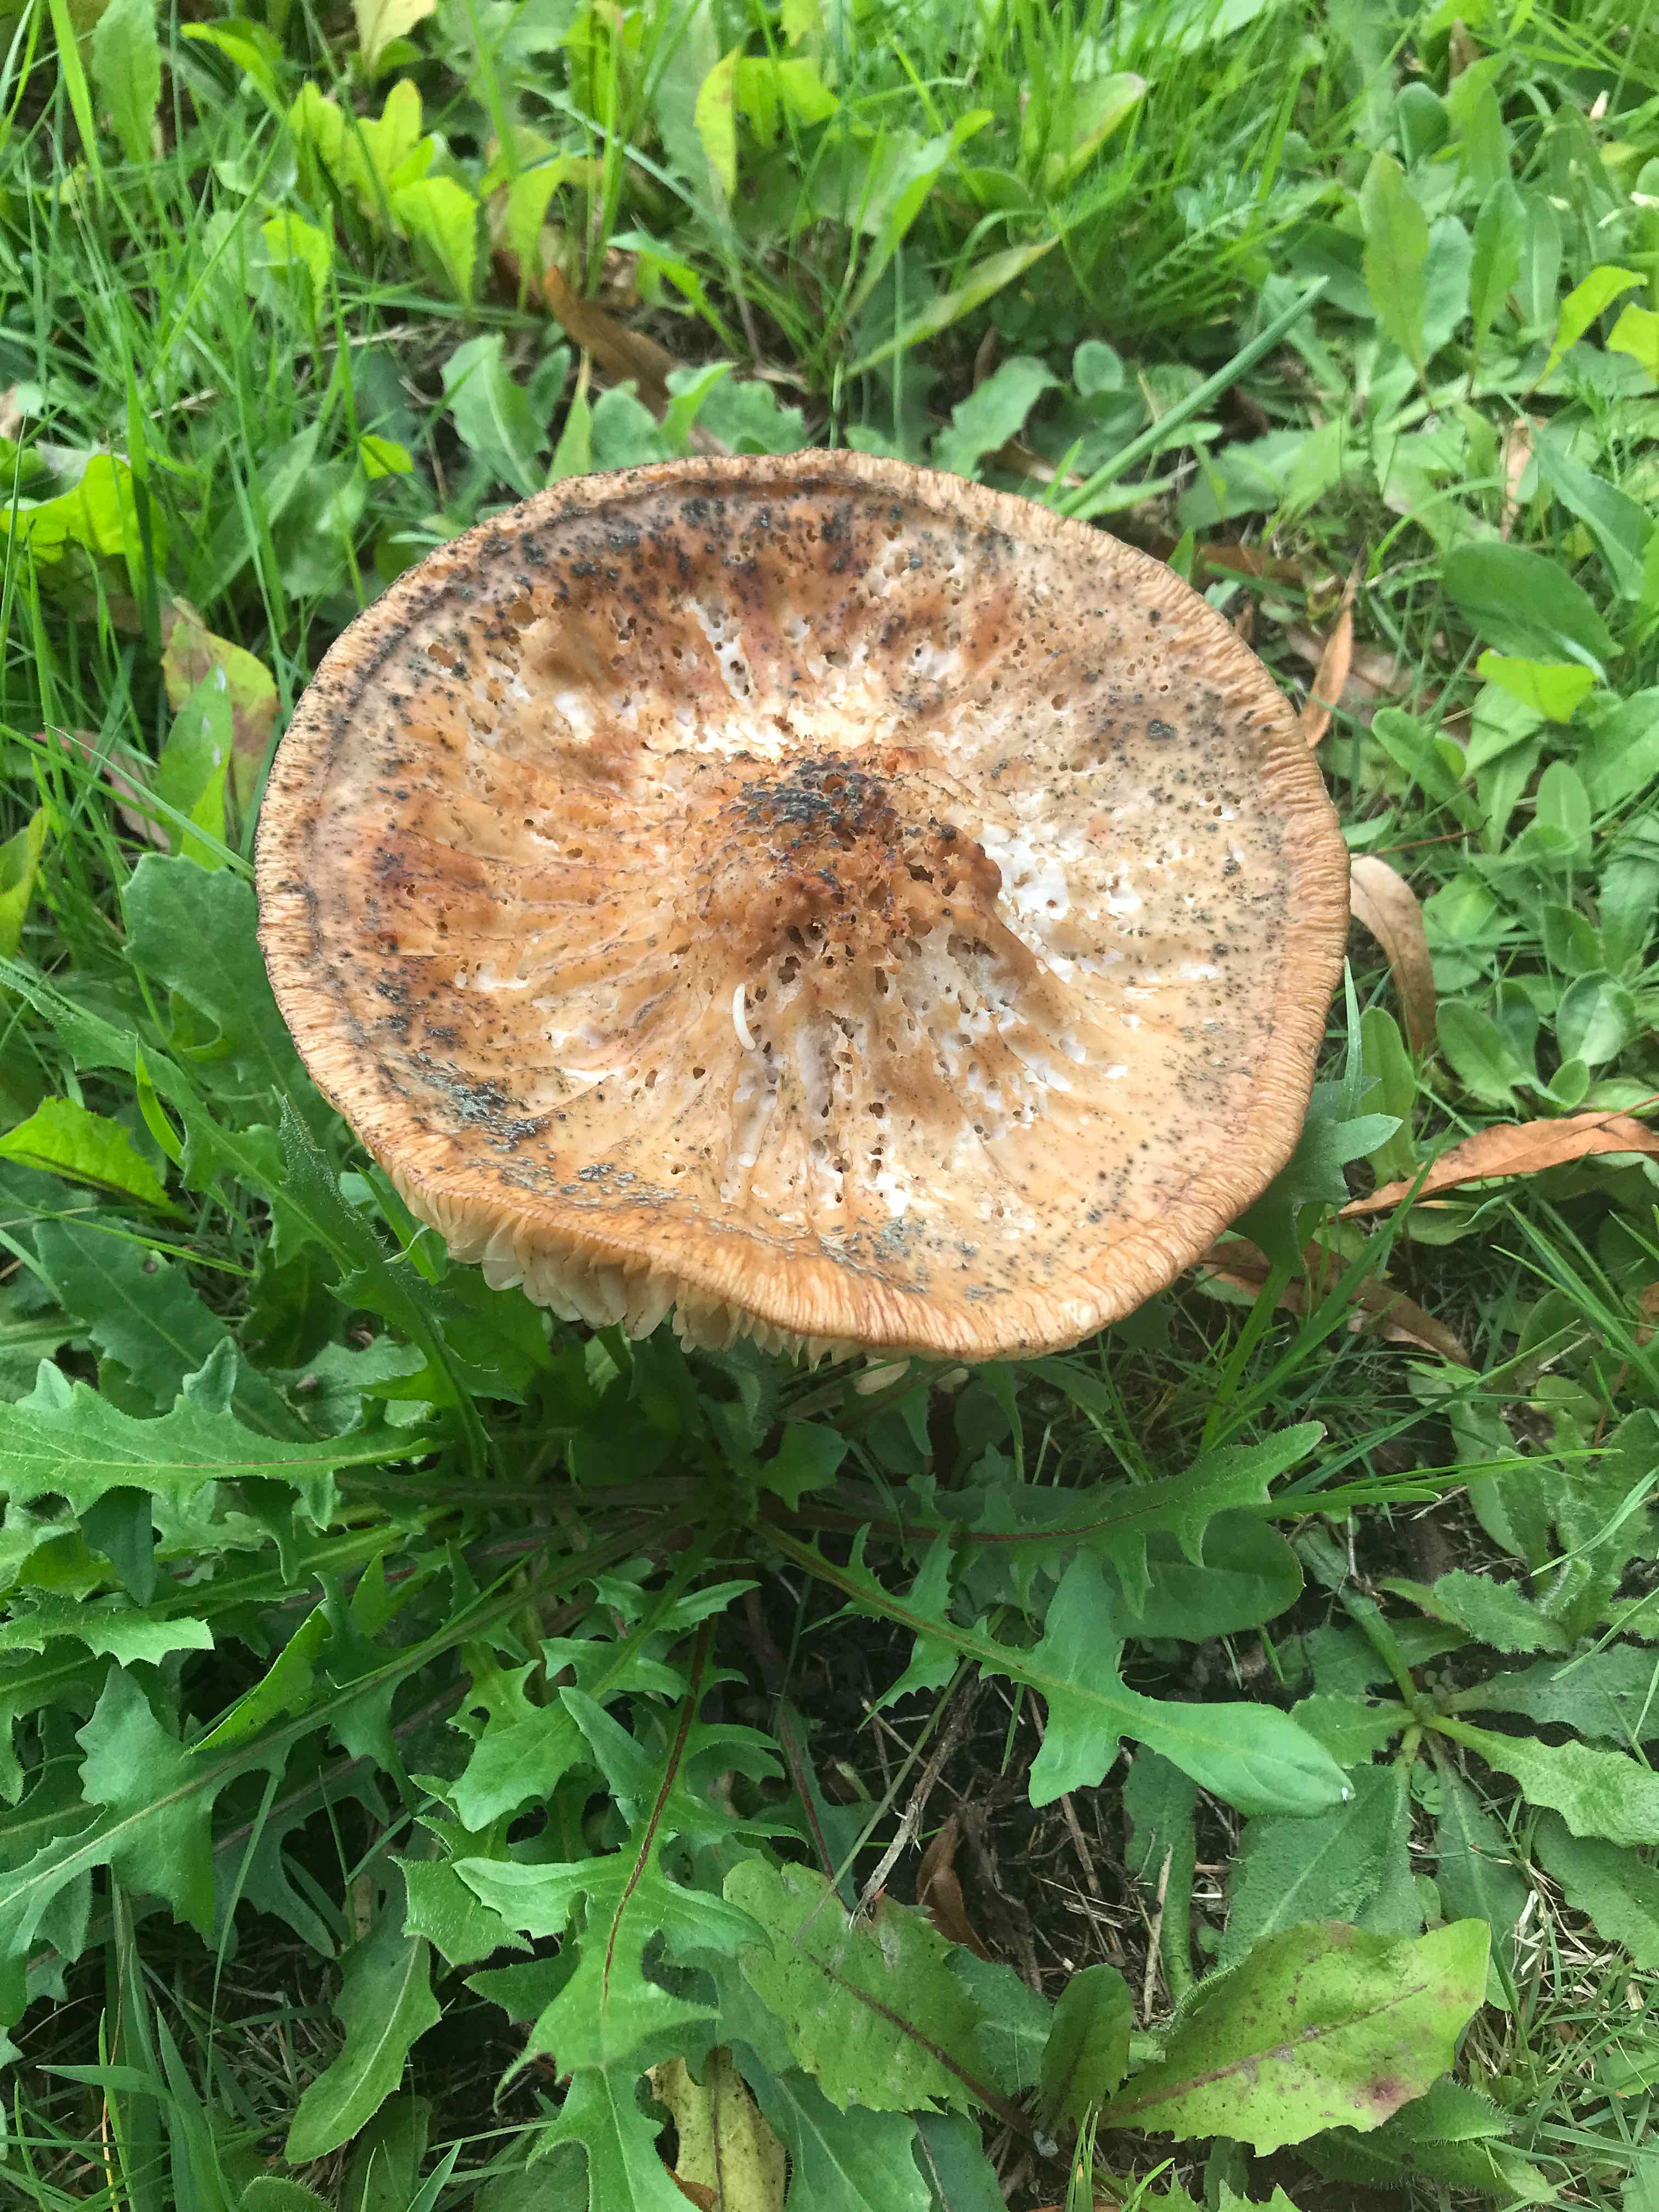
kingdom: Fungi
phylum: Basidiomycota
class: Agaricomycetes
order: Agaricales
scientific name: Agaricales
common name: champignonordenen
